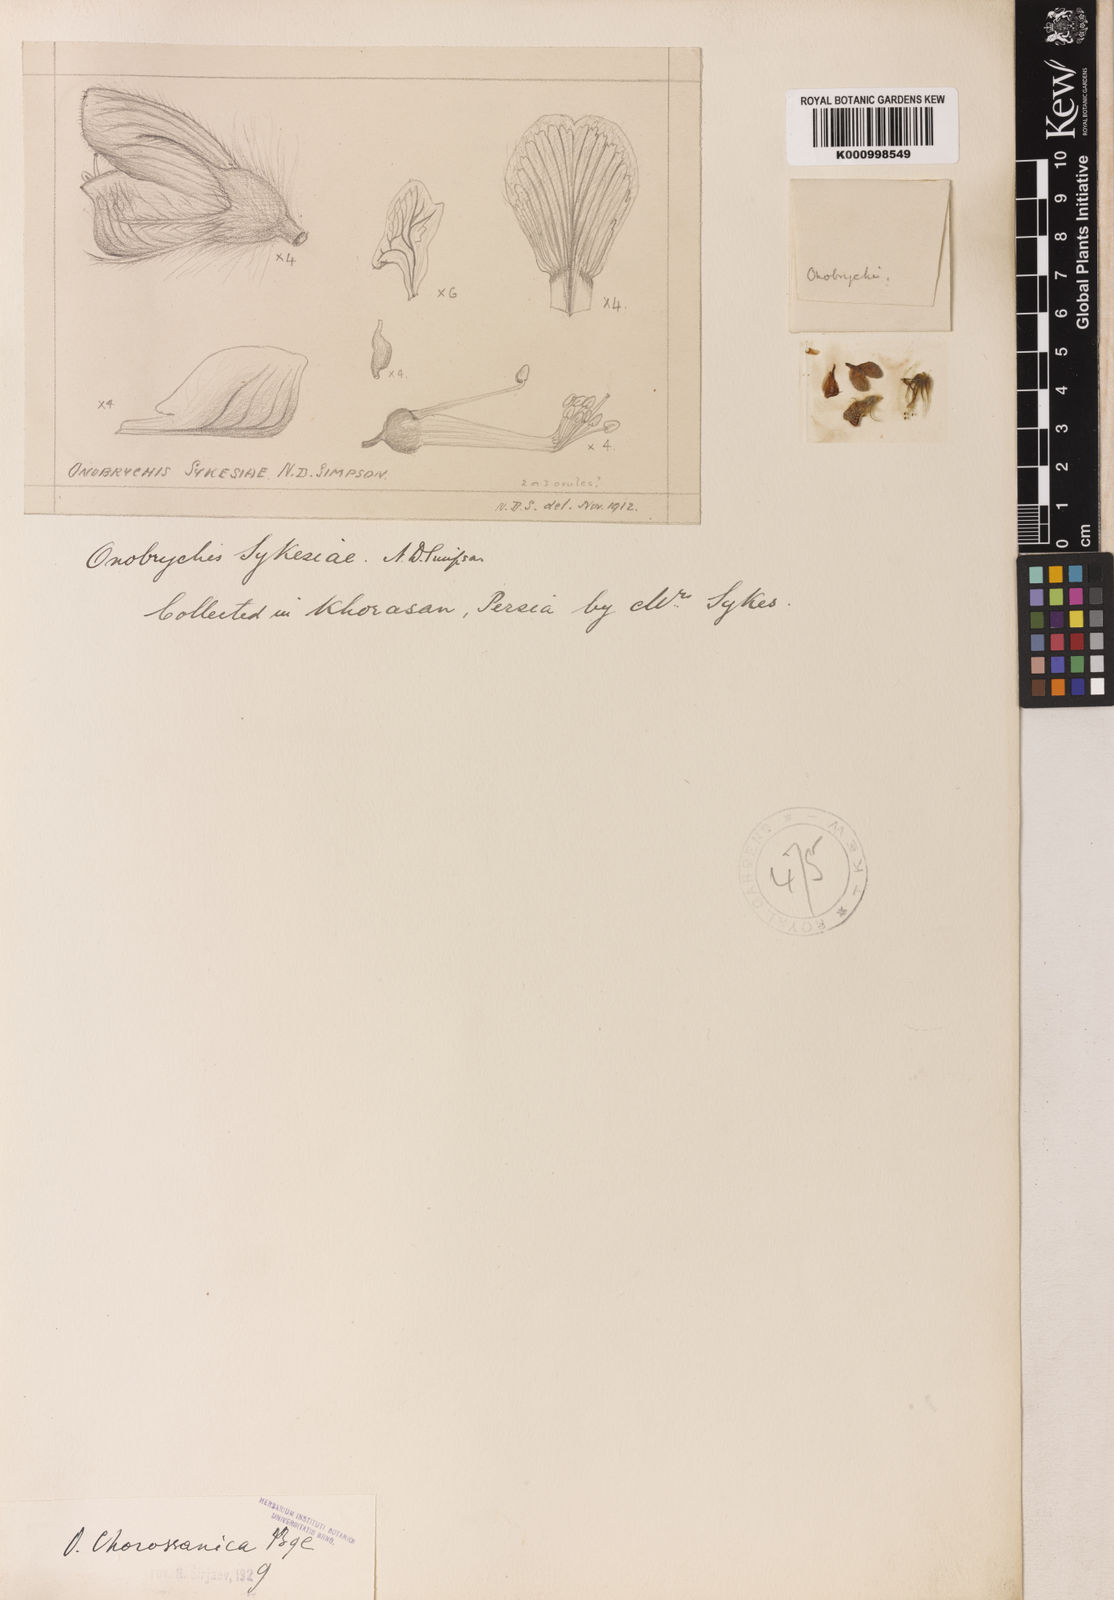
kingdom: Plantae
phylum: Tracheophyta
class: Magnoliopsida
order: Fabales
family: Fabaceae
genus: Onobrychis
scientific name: Onobrychis
